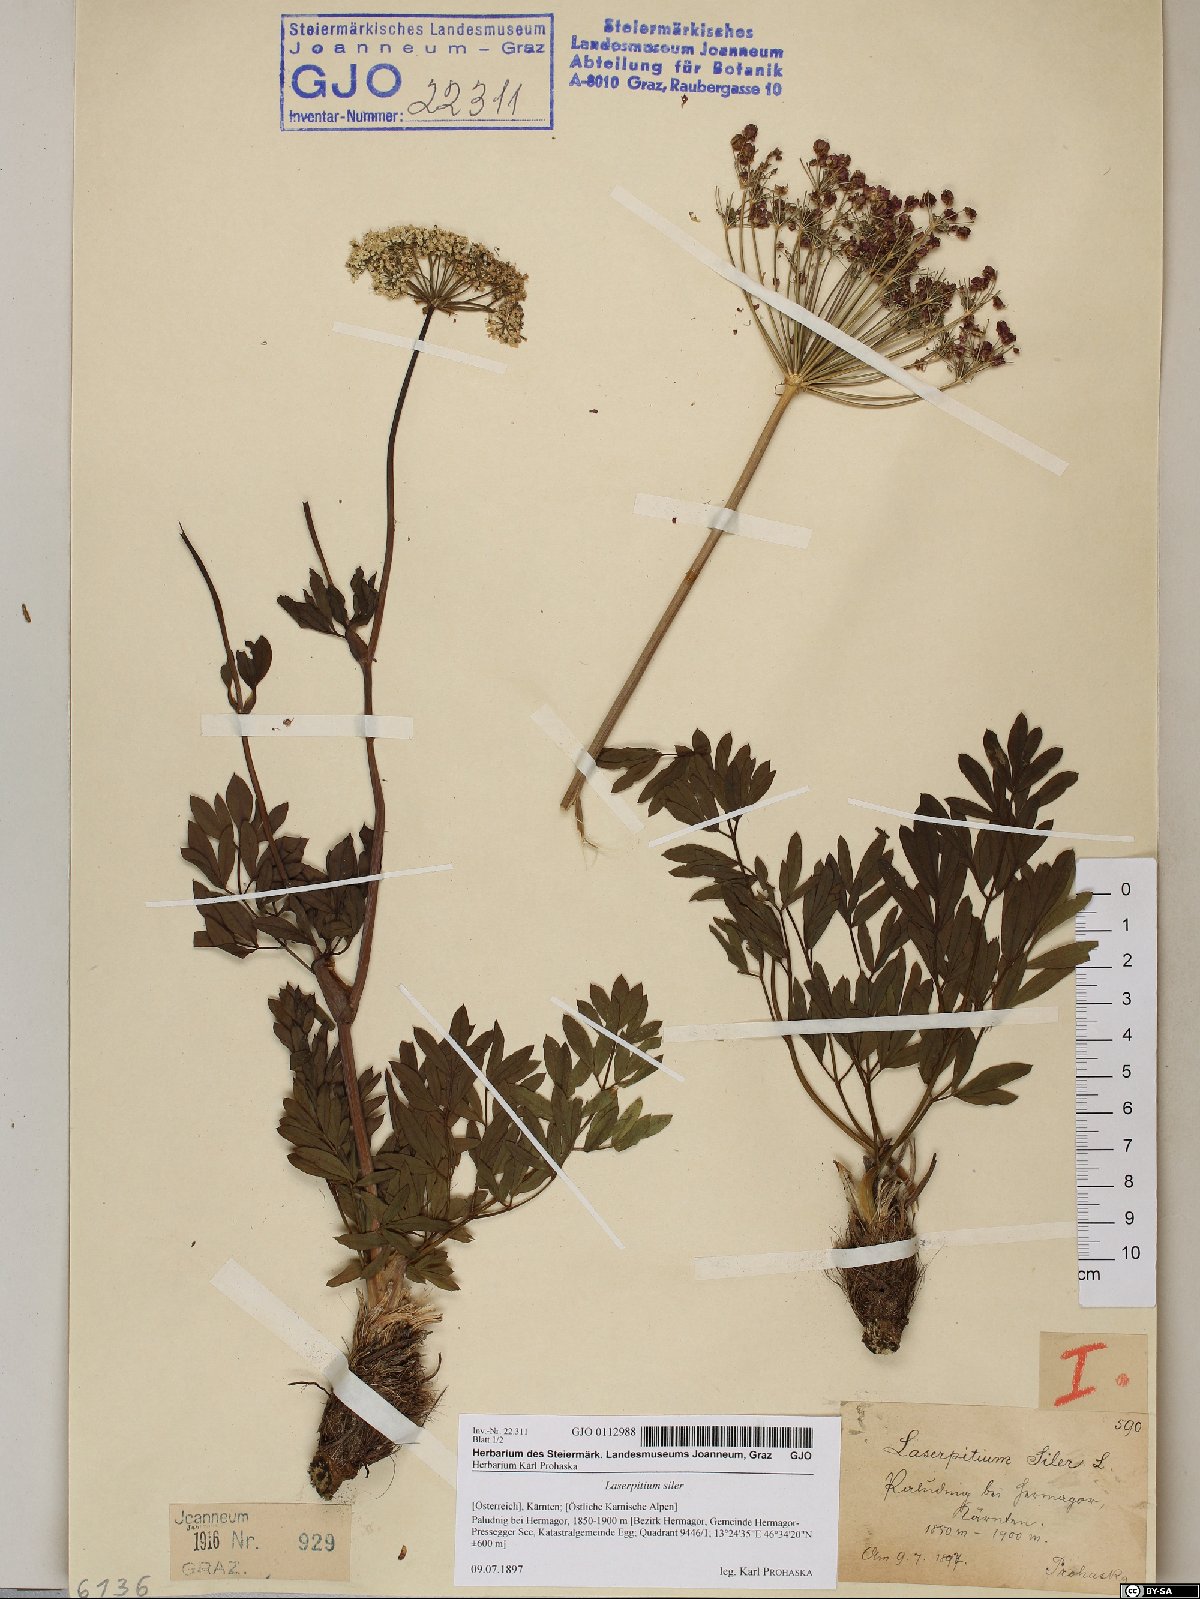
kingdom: Plantae
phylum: Tracheophyta
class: Magnoliopsida
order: Apiales
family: Apiaceae
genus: Siler
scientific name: Siler montanum
